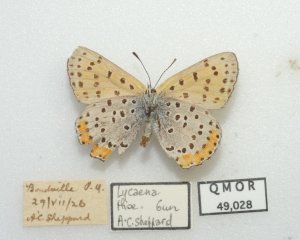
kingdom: Animalia
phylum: Arthropoda
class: Insecta
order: Lepidoptera
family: Sesiidae
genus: Sesia
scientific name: Sesia Lycaena hyllus
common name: Bronze Copper
